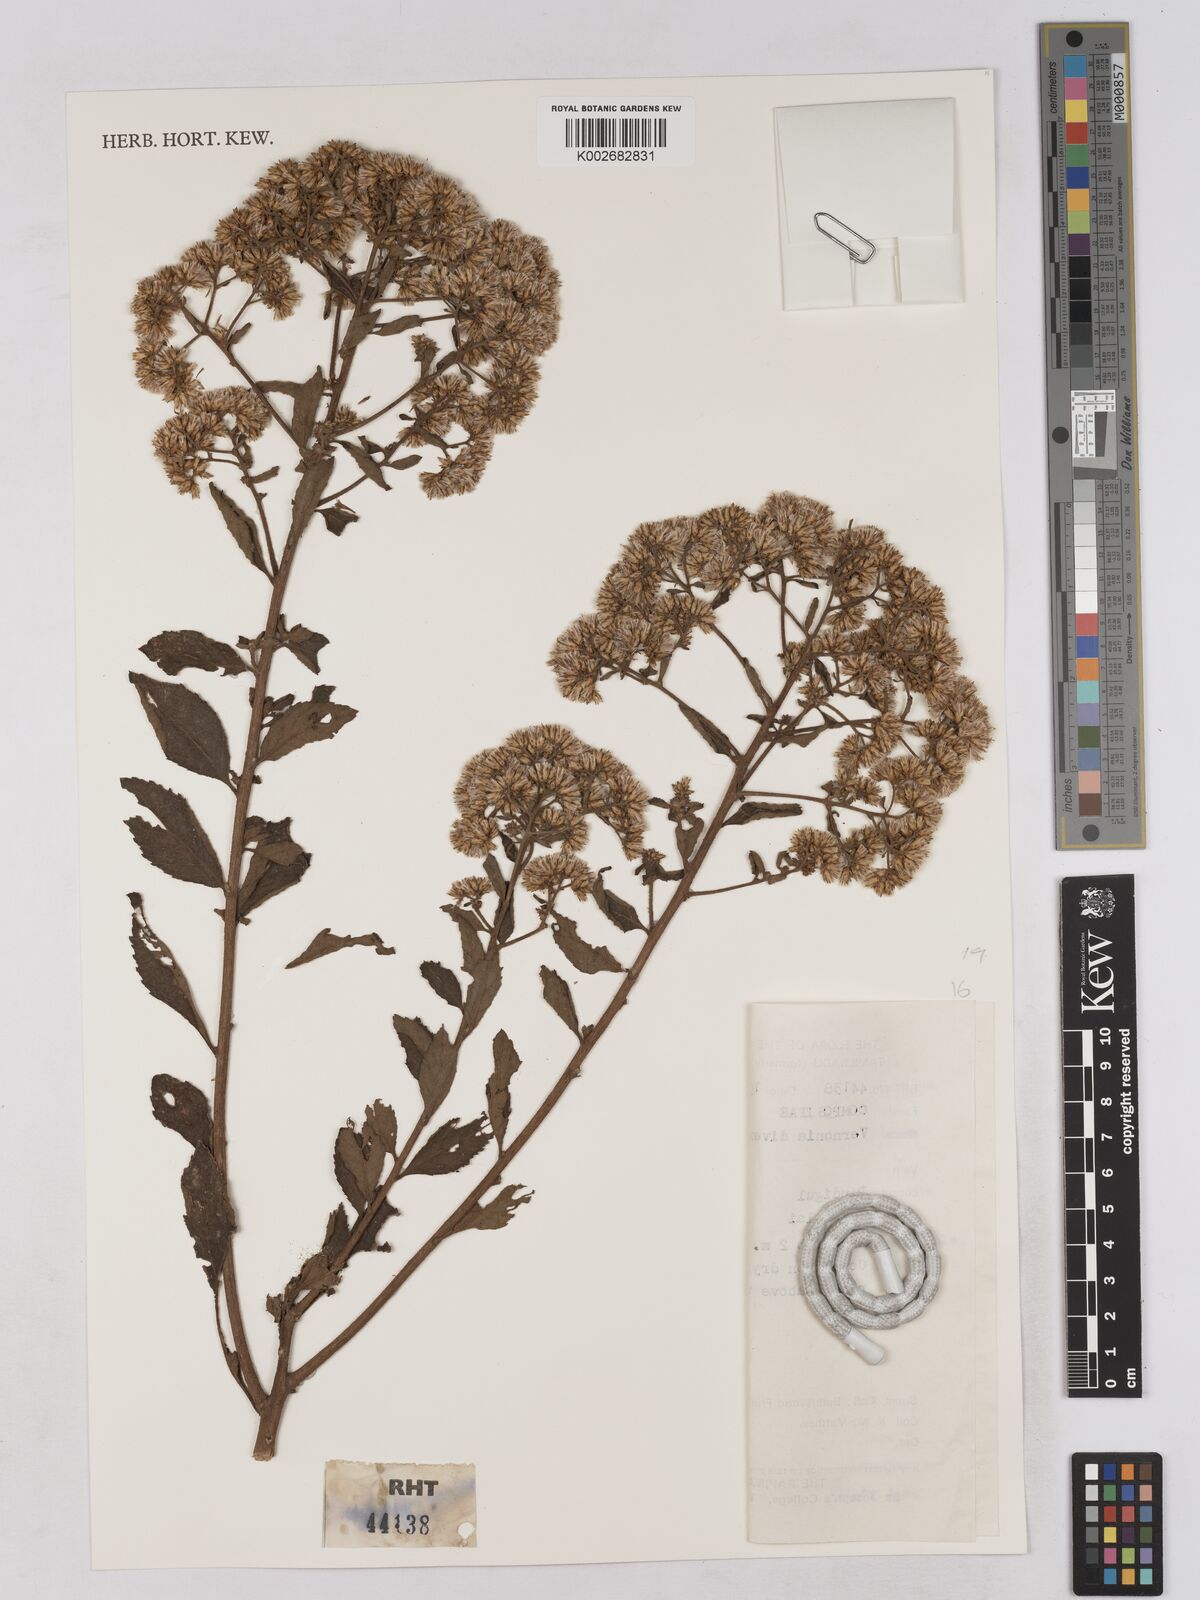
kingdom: Plantae
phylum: Tracheophyta
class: Magnoliopsida
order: Asterales
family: Asteraceae
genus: Acilepis
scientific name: Acilepis divergens
